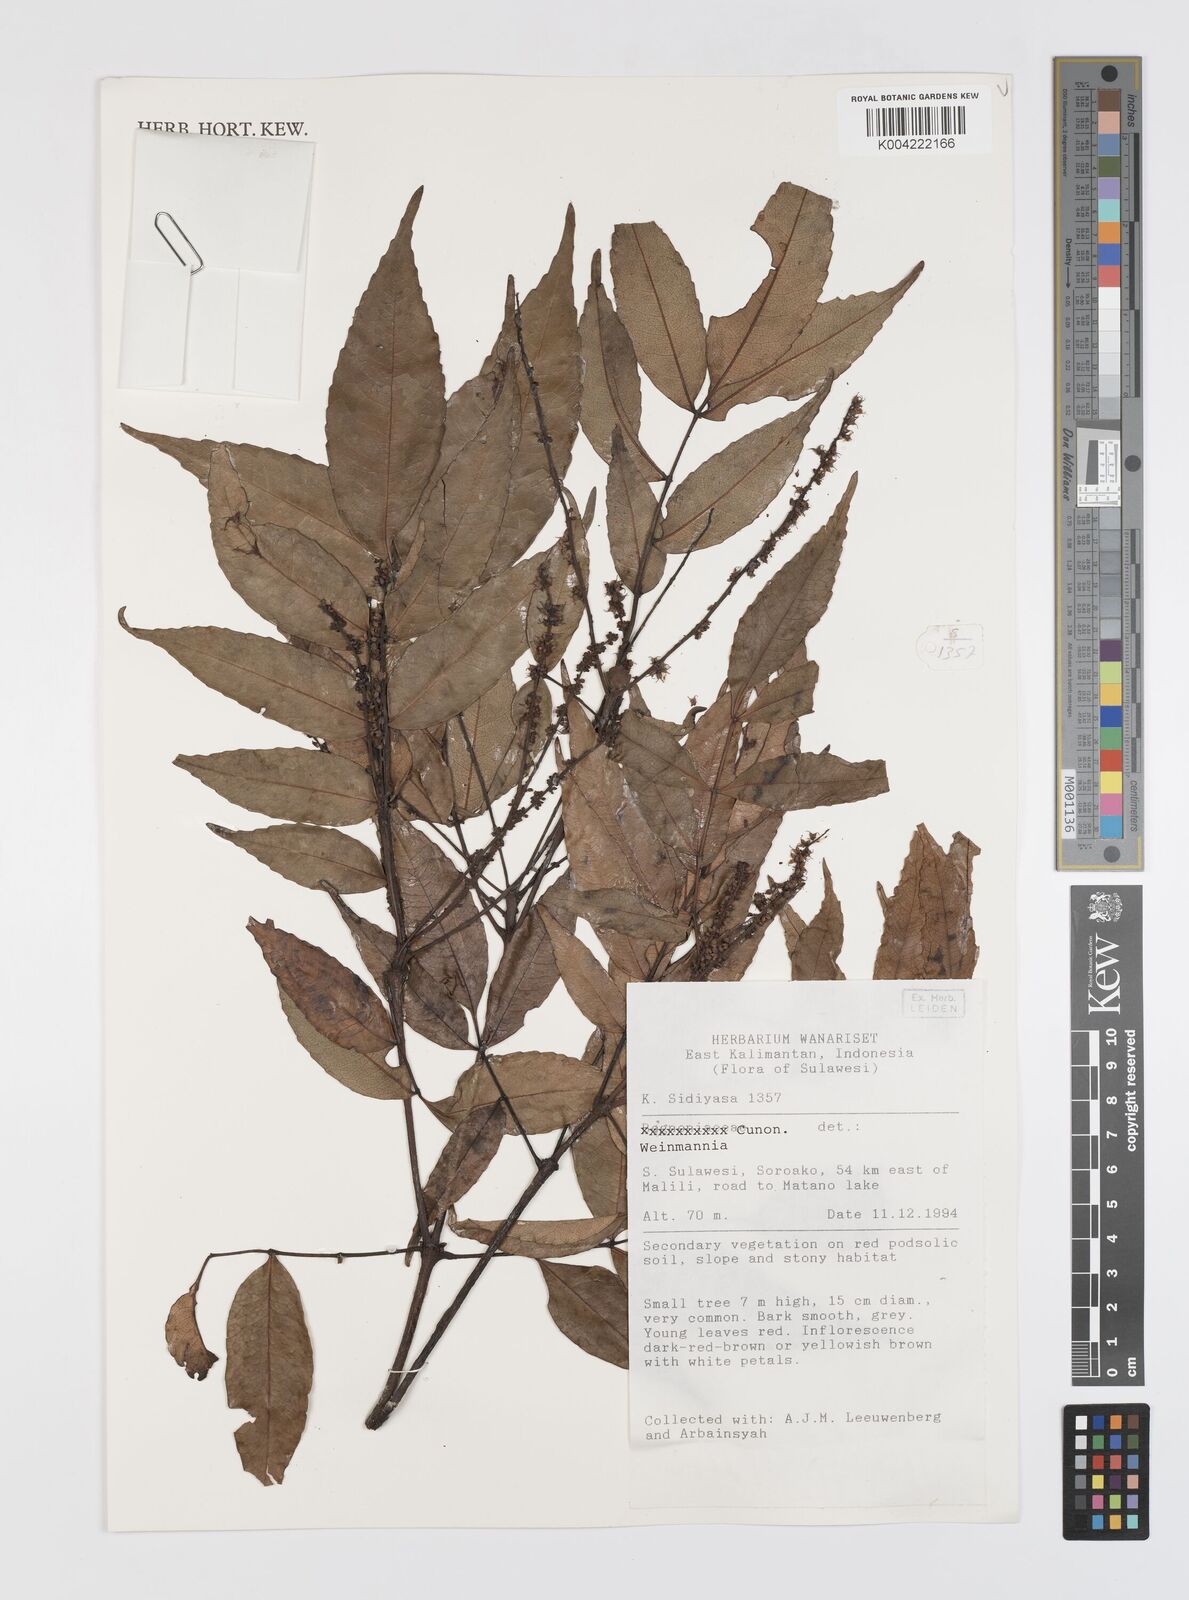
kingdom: Plantae
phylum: Tracheophyta
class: Magnoliopsida
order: Oxalidales
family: Cunoniaceae
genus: Weinmannia
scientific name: Weinmannia
